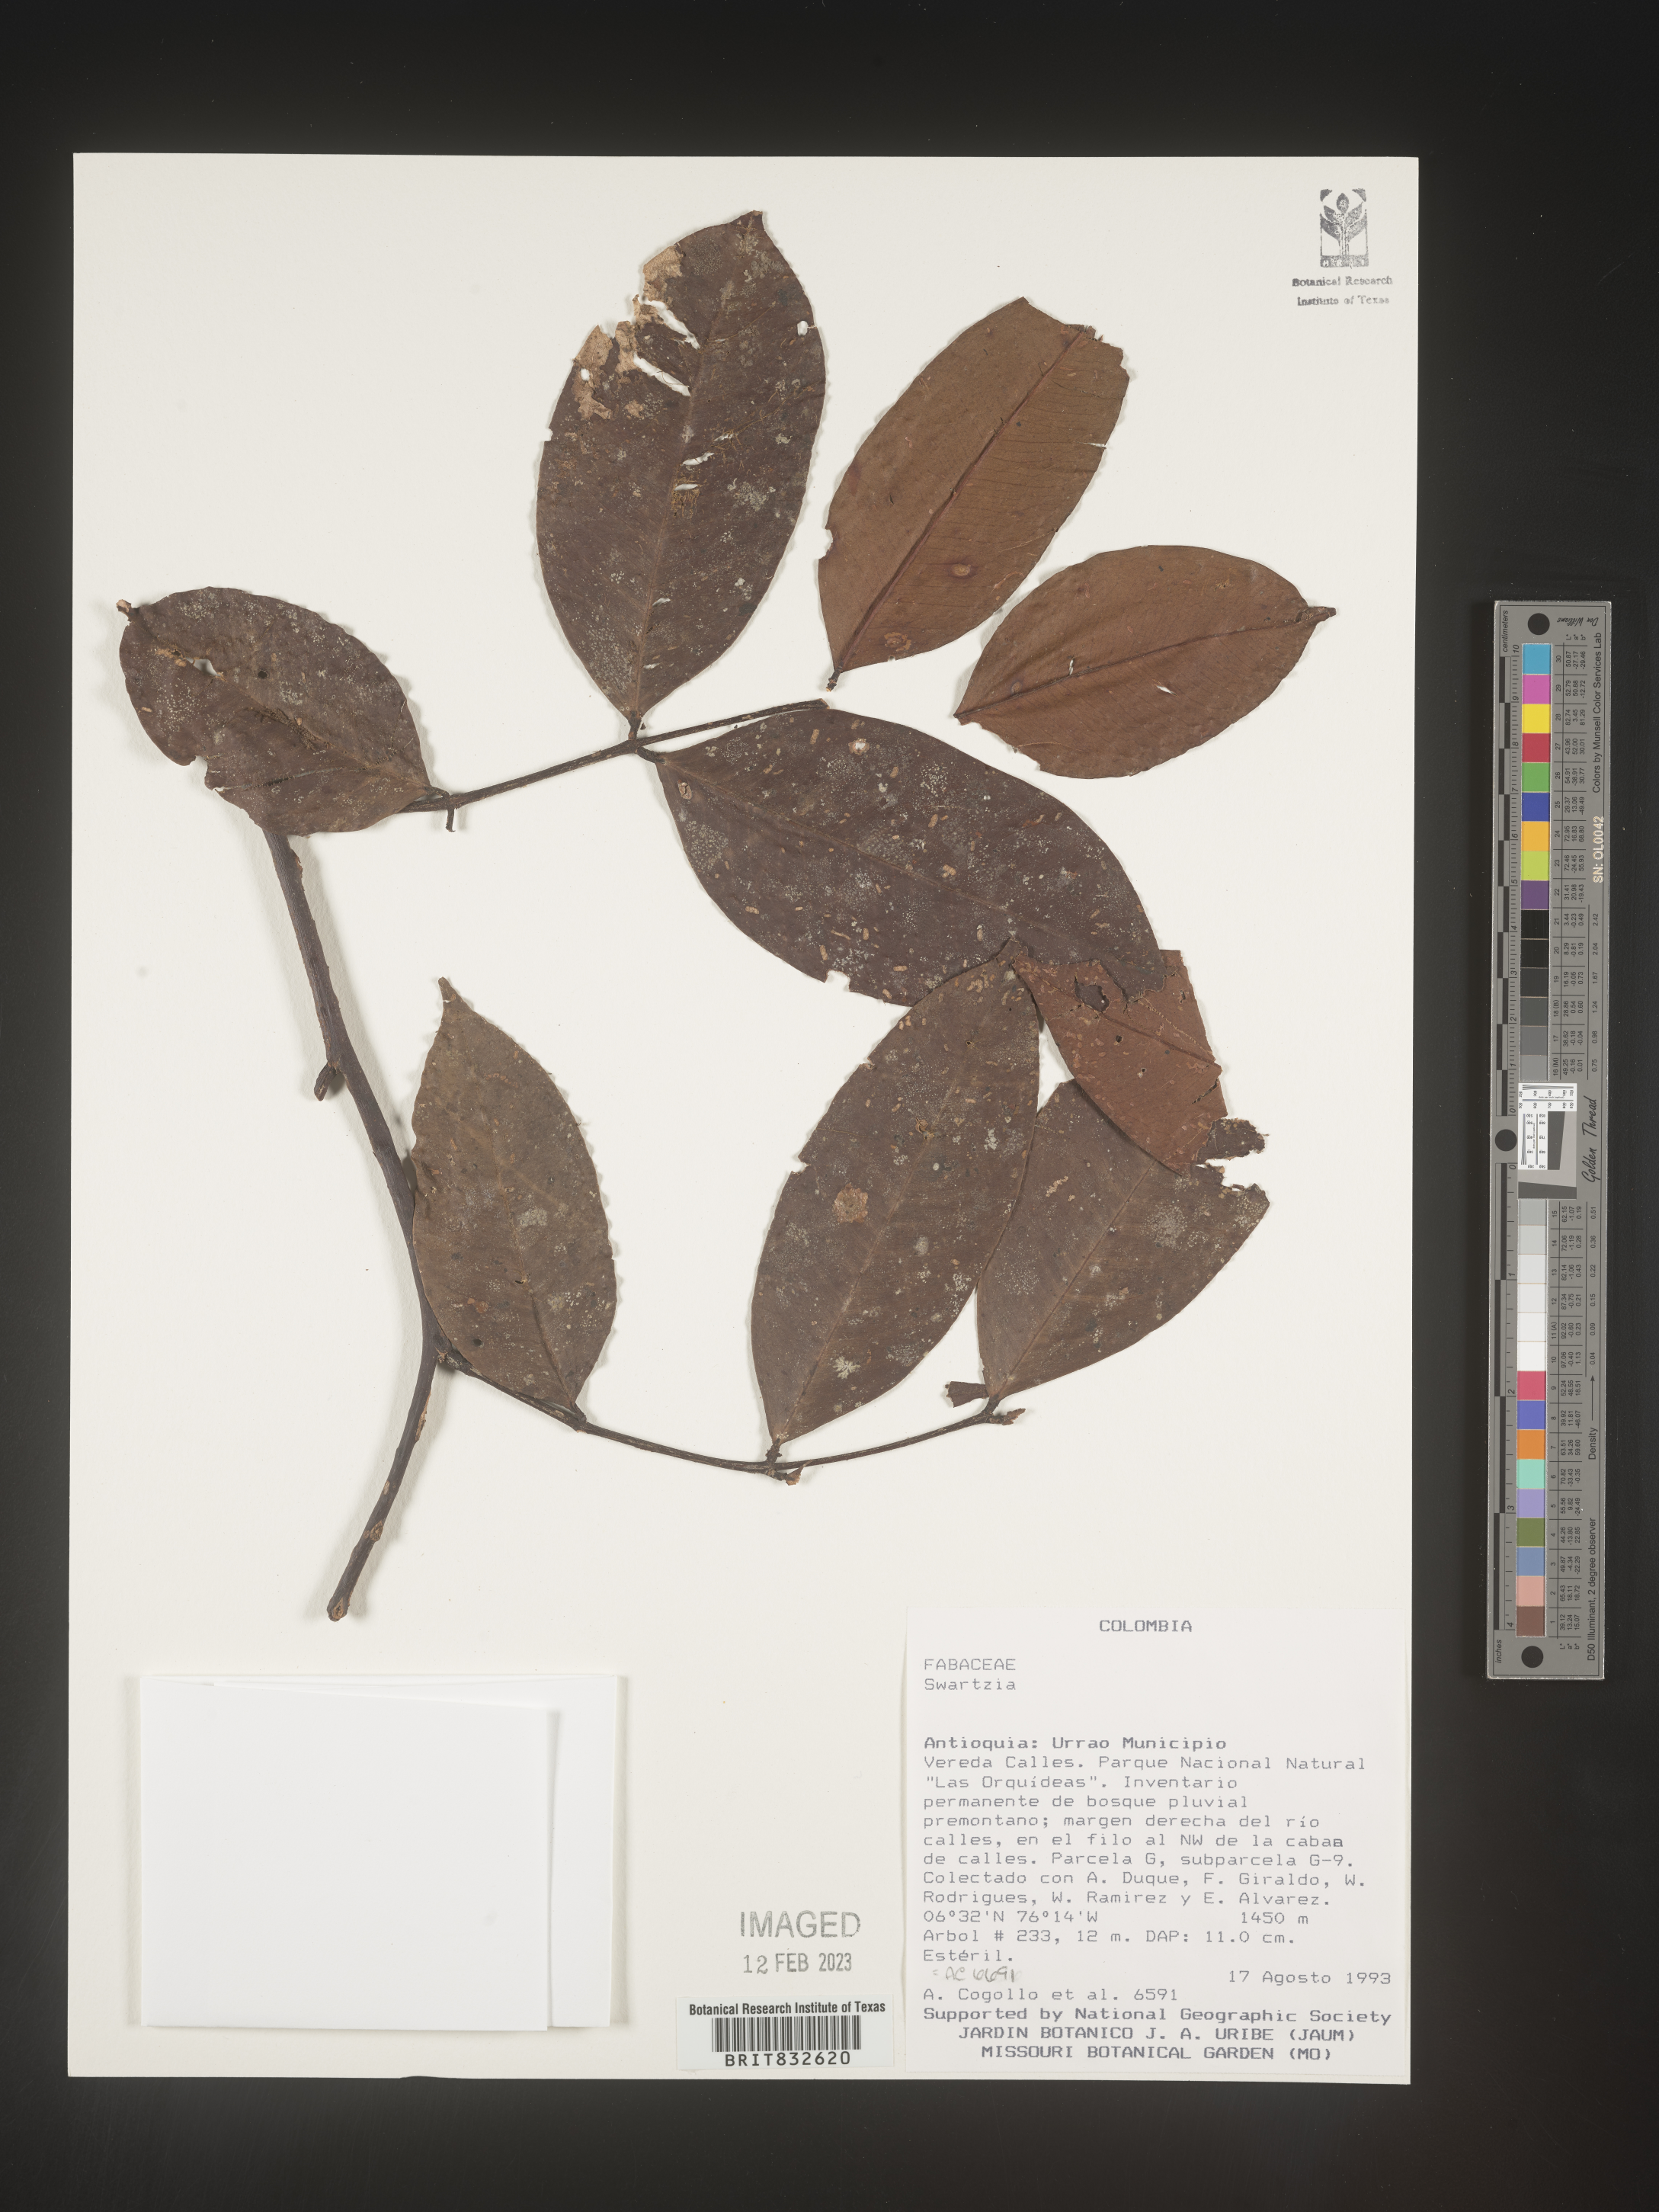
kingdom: Plantae
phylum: Tracheophyta
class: Magnoliopsida
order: Fabales
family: Fabaceae
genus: Swartzia
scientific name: Swartzia
